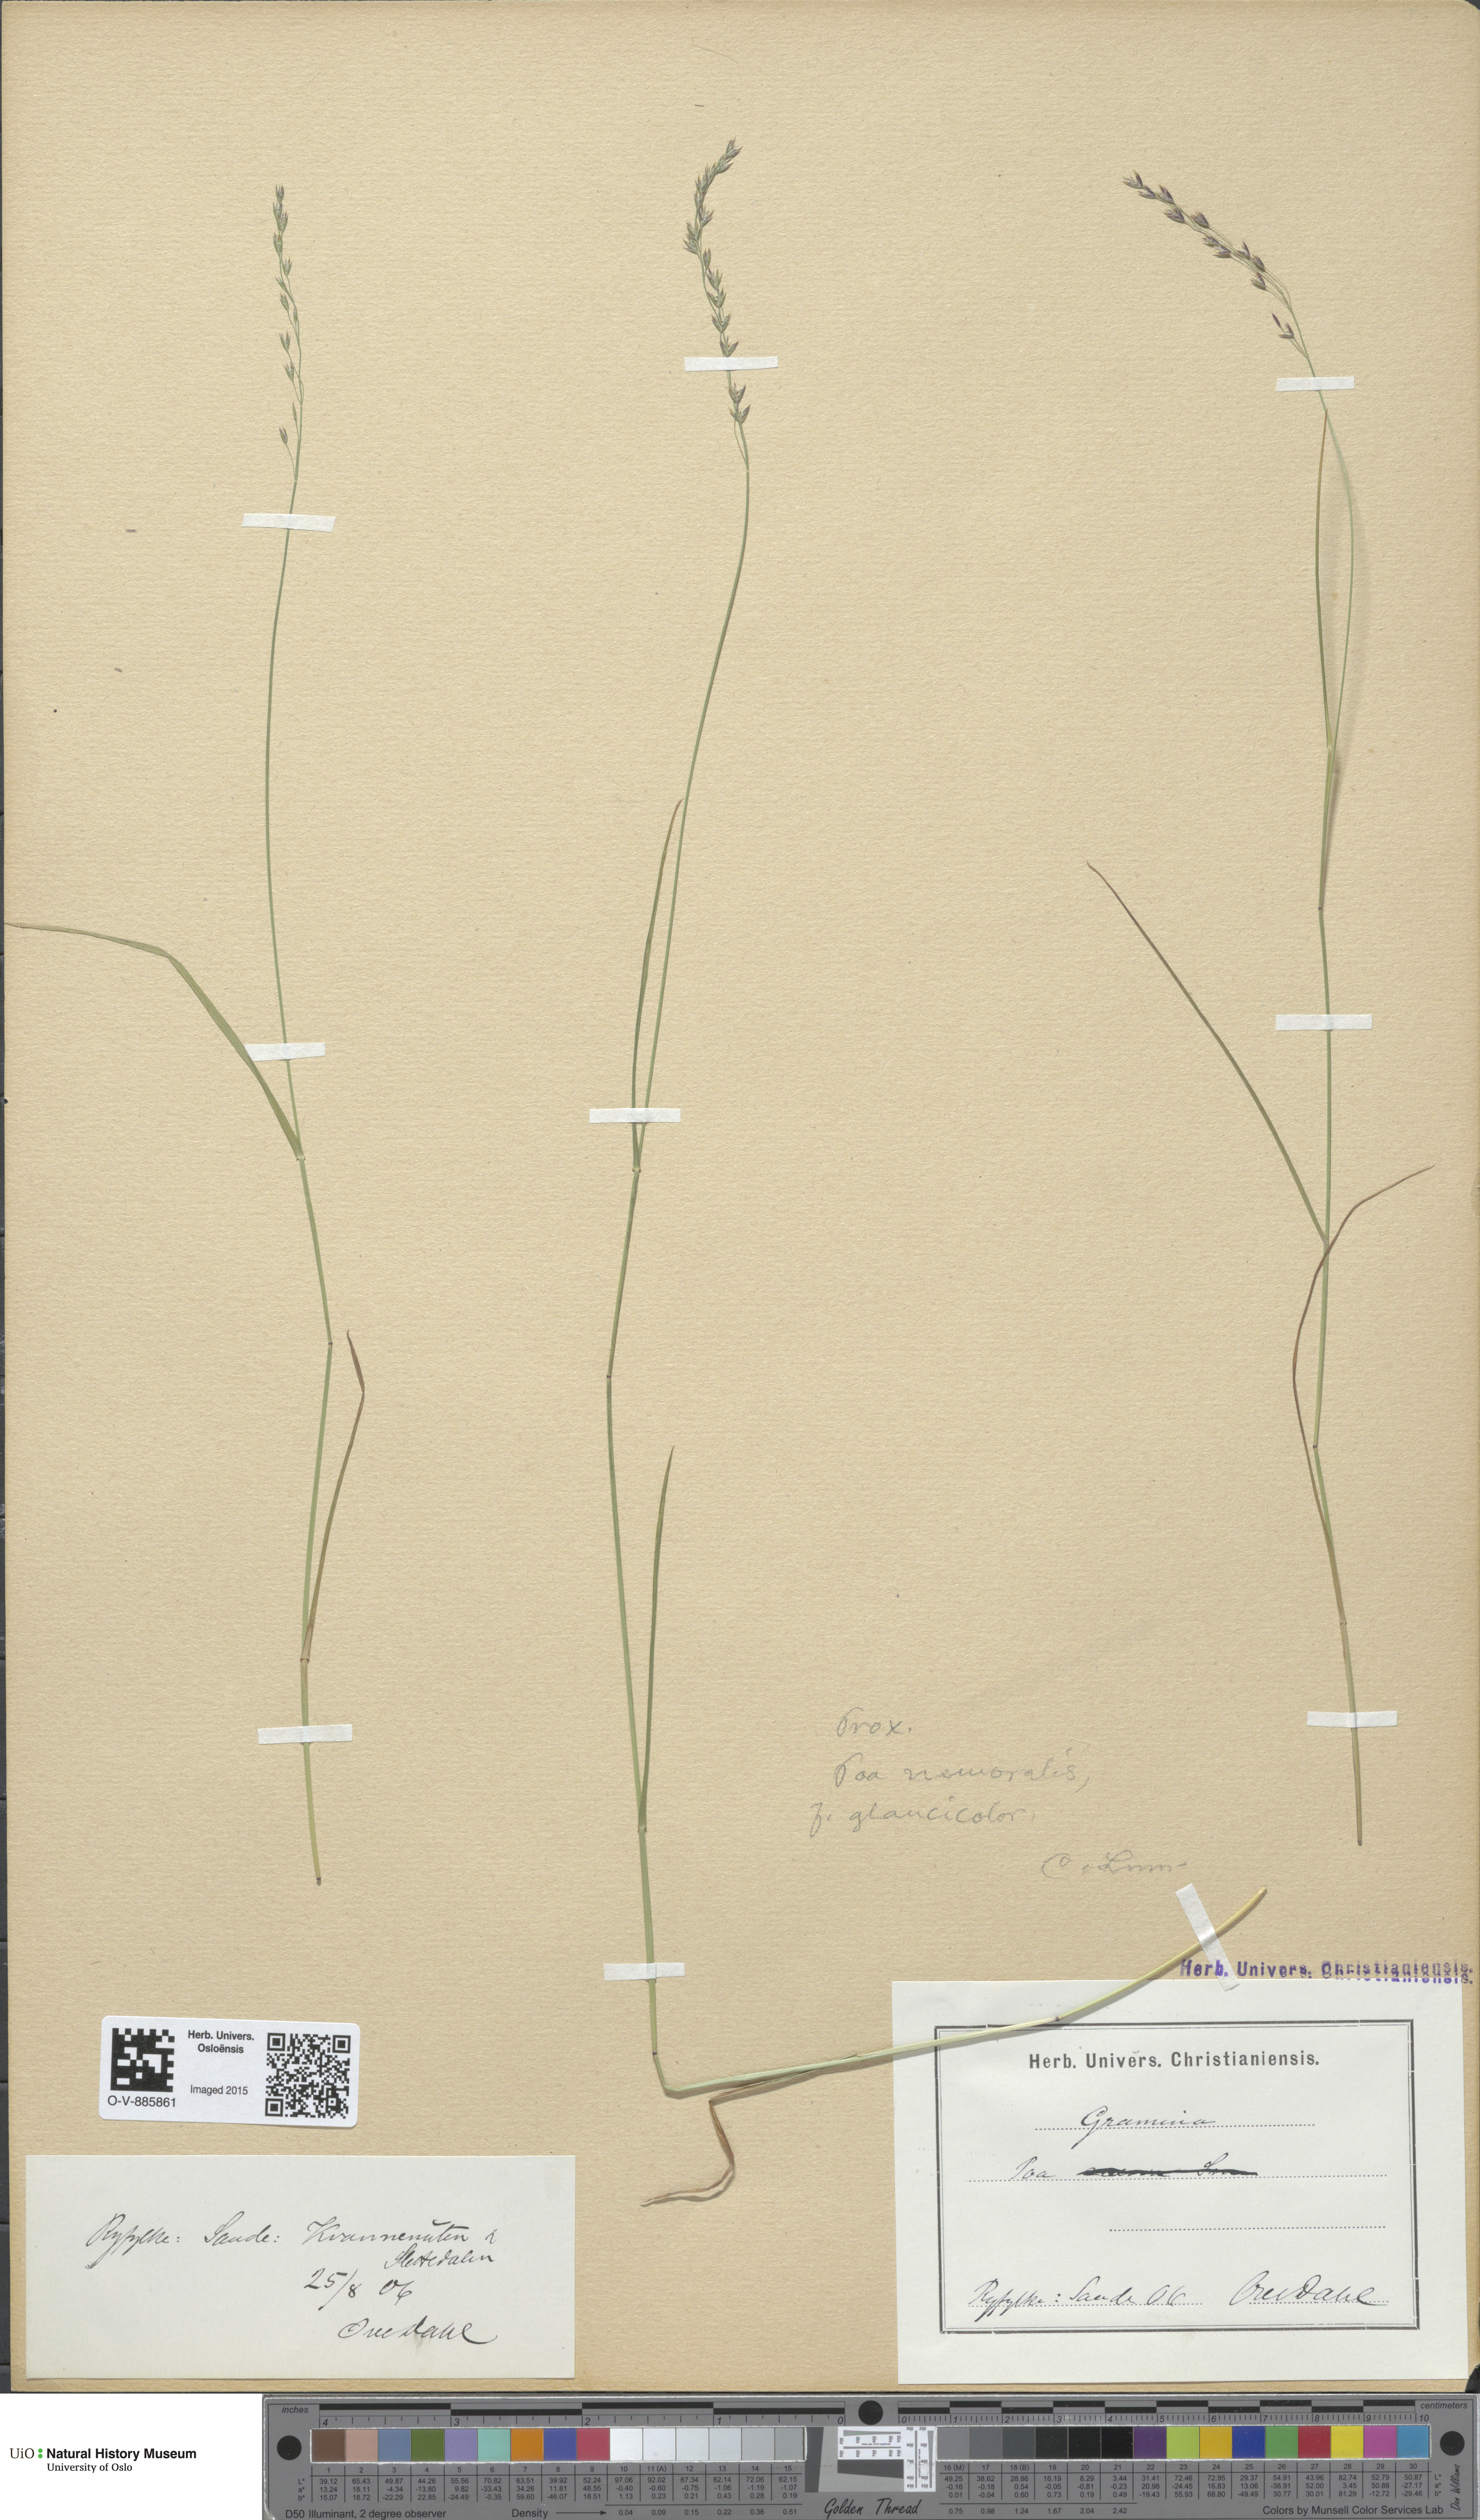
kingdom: Plantae
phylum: Tracheophyta
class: Liliopsida
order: Poales
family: Poaceae
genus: Poa
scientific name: Poa nemoralis
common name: Wood bluegrass
